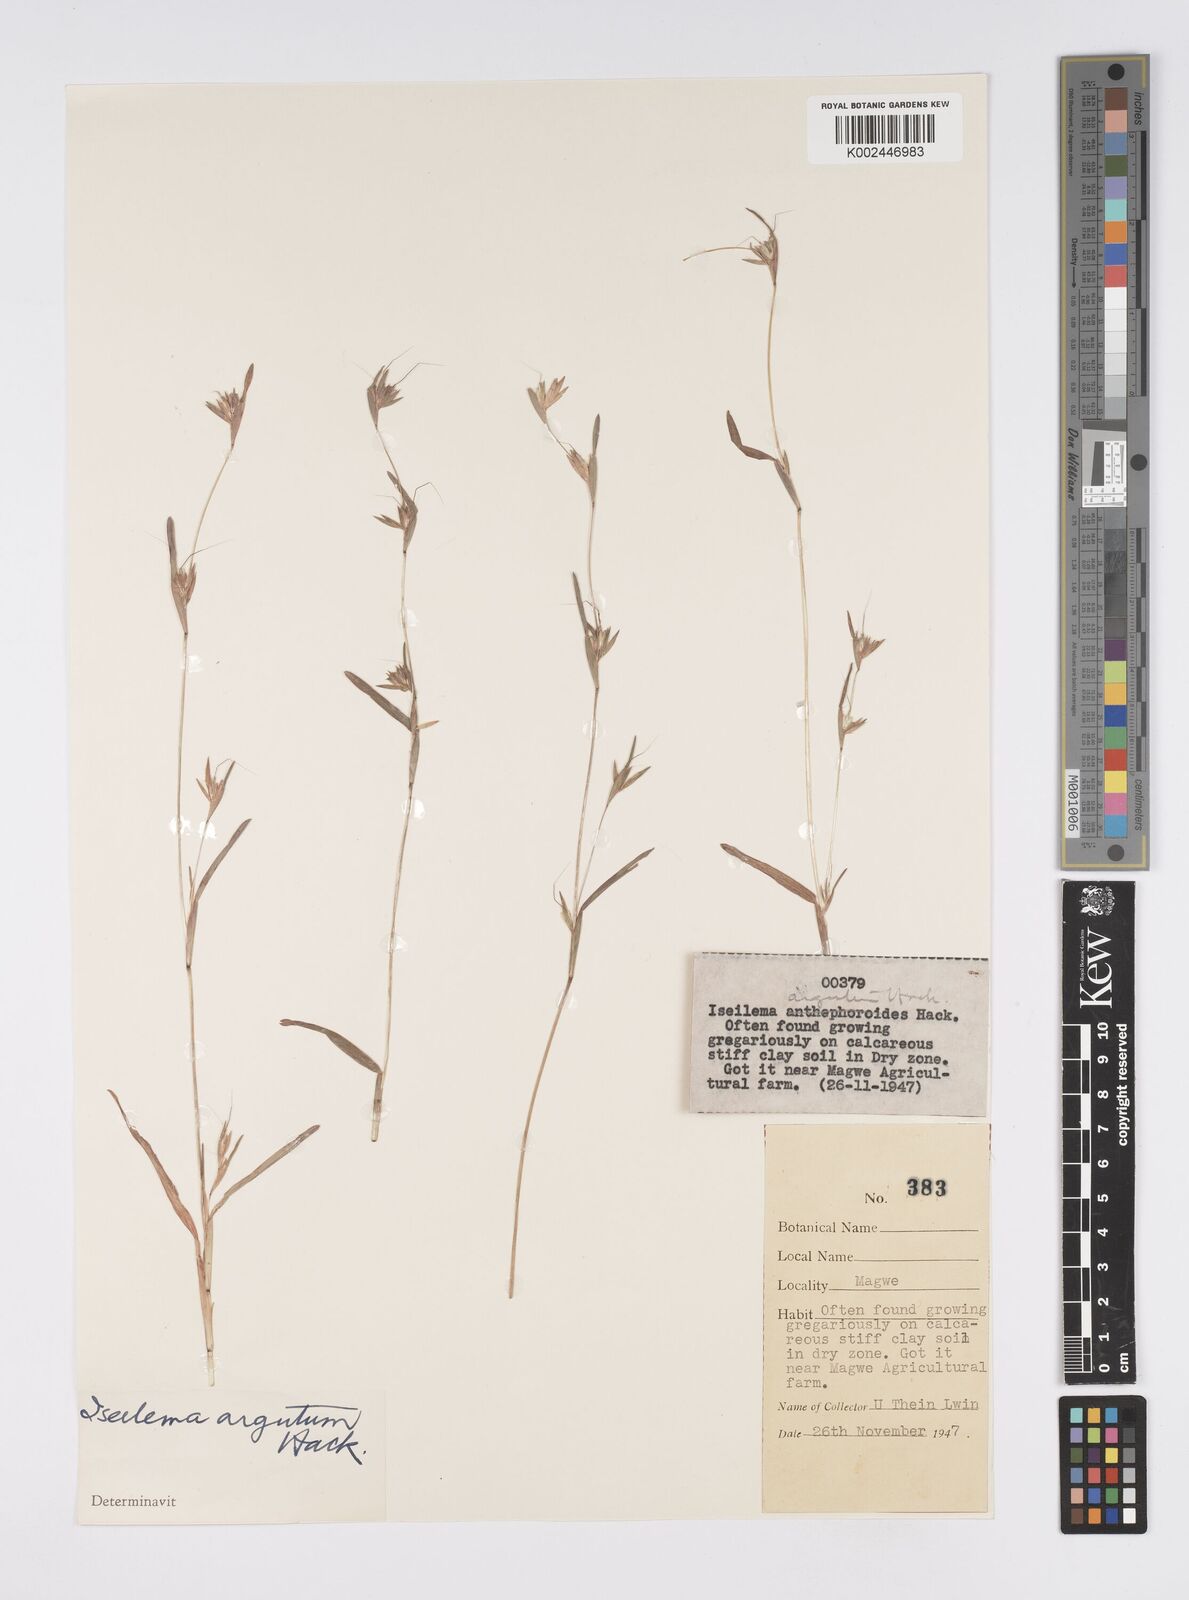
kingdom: Plantae
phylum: Tracheophyta
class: Liliopsida
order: Poales
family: Poaceae
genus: Iseilema
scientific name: Iseilema argutum
